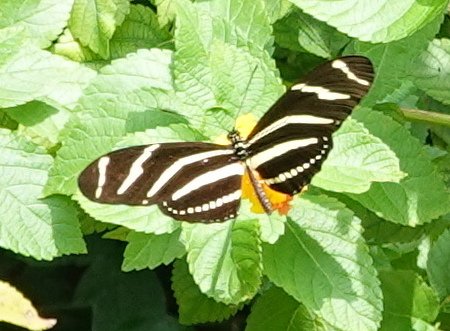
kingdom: Animalia
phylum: Arthropoda
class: Insecta
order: Lepidoptera
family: Nymphalidae
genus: Heliconius
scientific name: Heliconius charithonia
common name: Zebra Longwing
